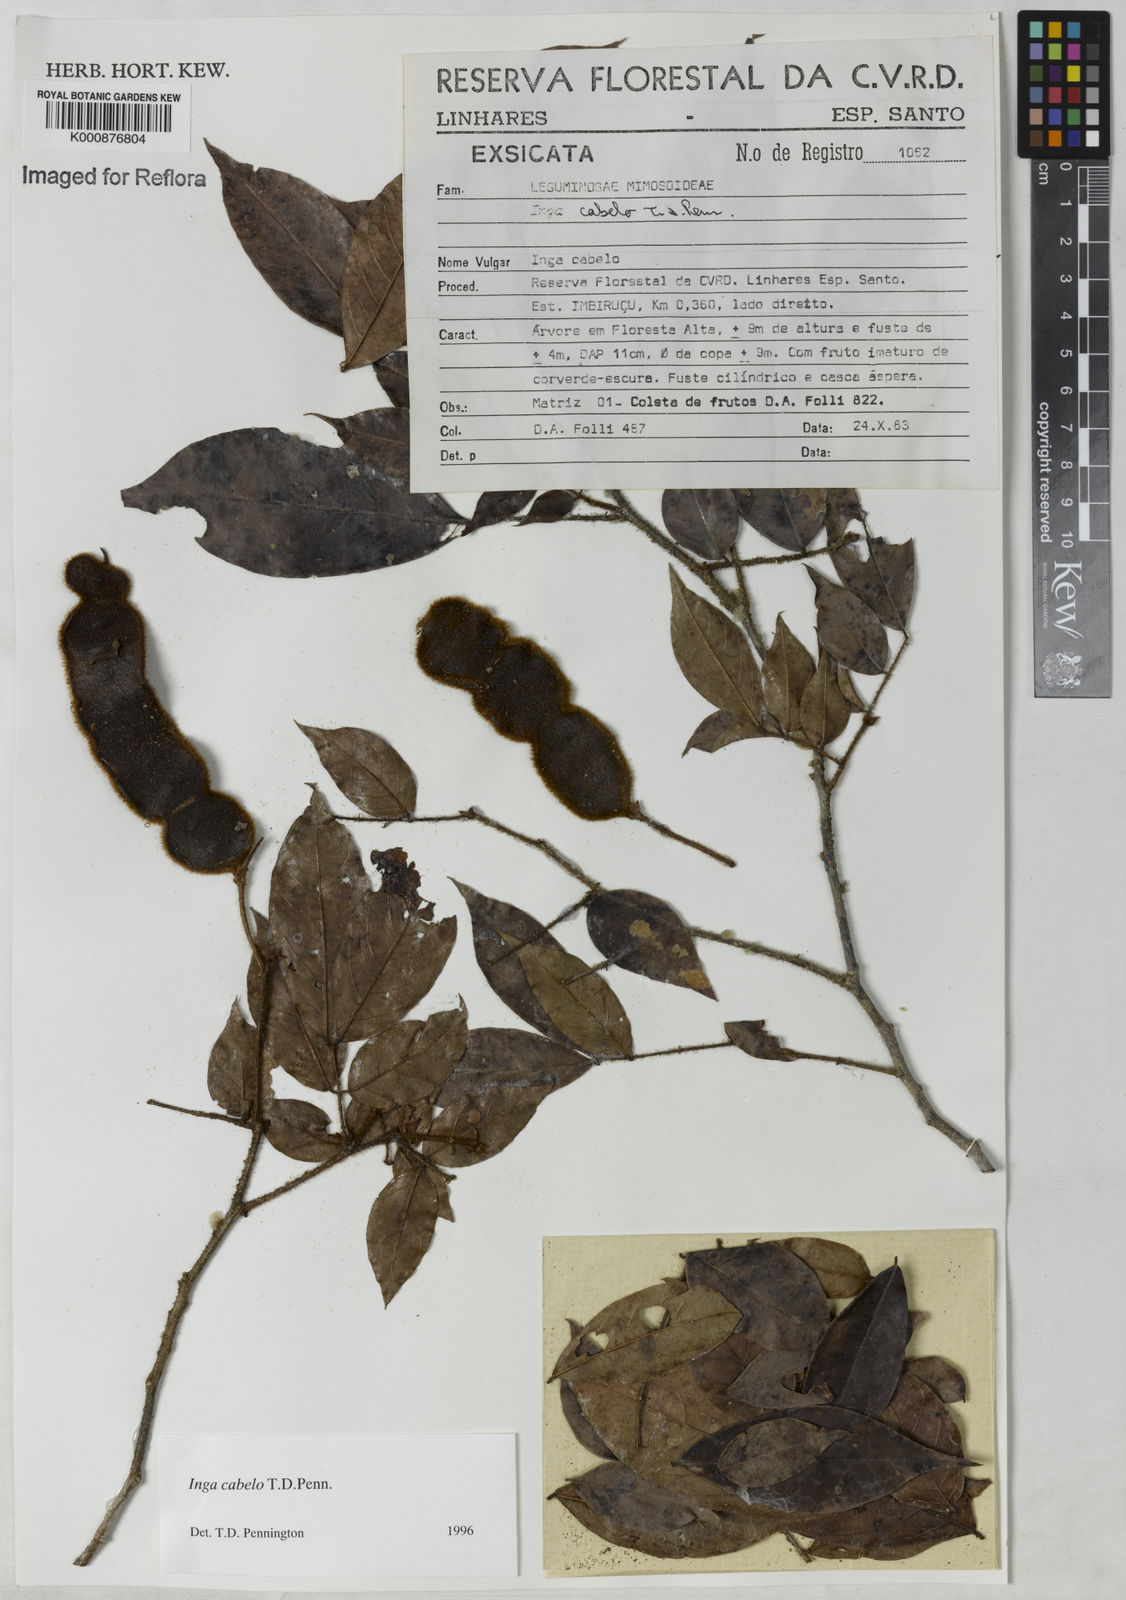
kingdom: Plantae
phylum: Tracheophyta
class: Magnoliopsida
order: Fabales
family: Fabaceae
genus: Inga
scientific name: Inga cabelo
